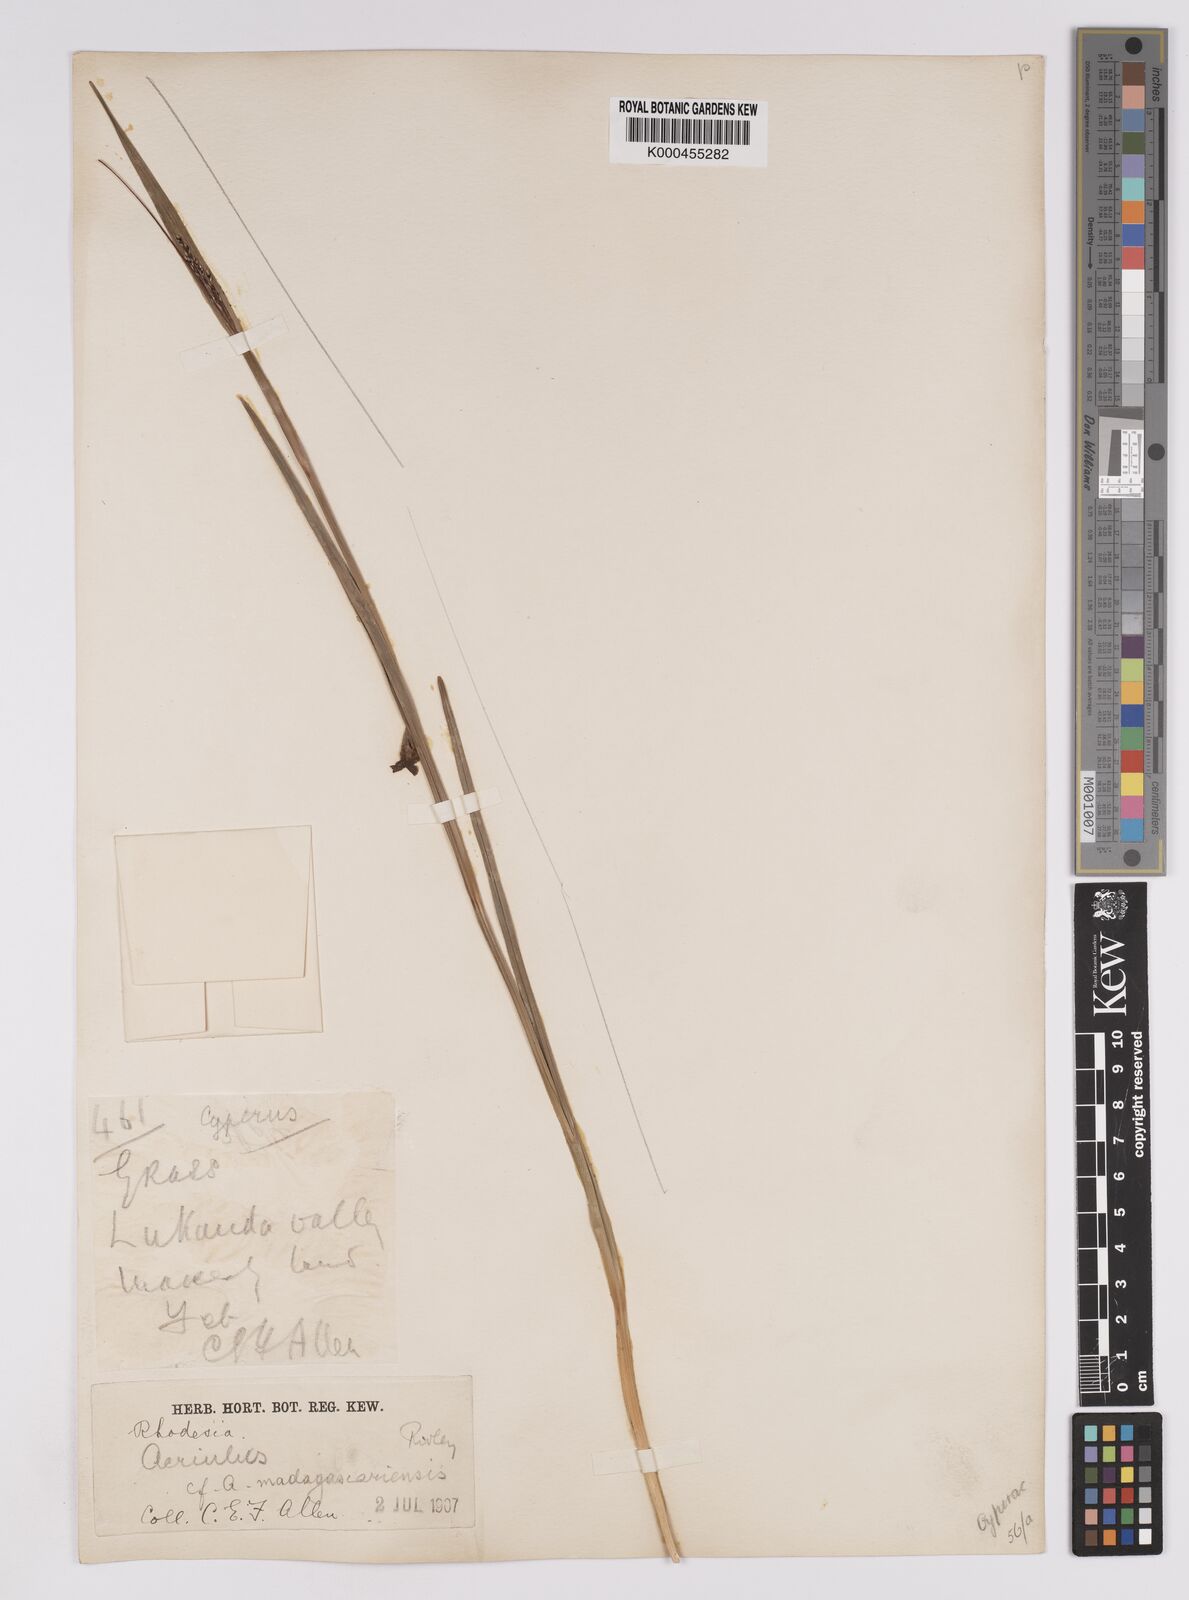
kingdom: Plantae
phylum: Tracheophyta
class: Liliopsida
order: Poales
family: Cyperaceae
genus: Scleria
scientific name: Scleria greigiifolia
